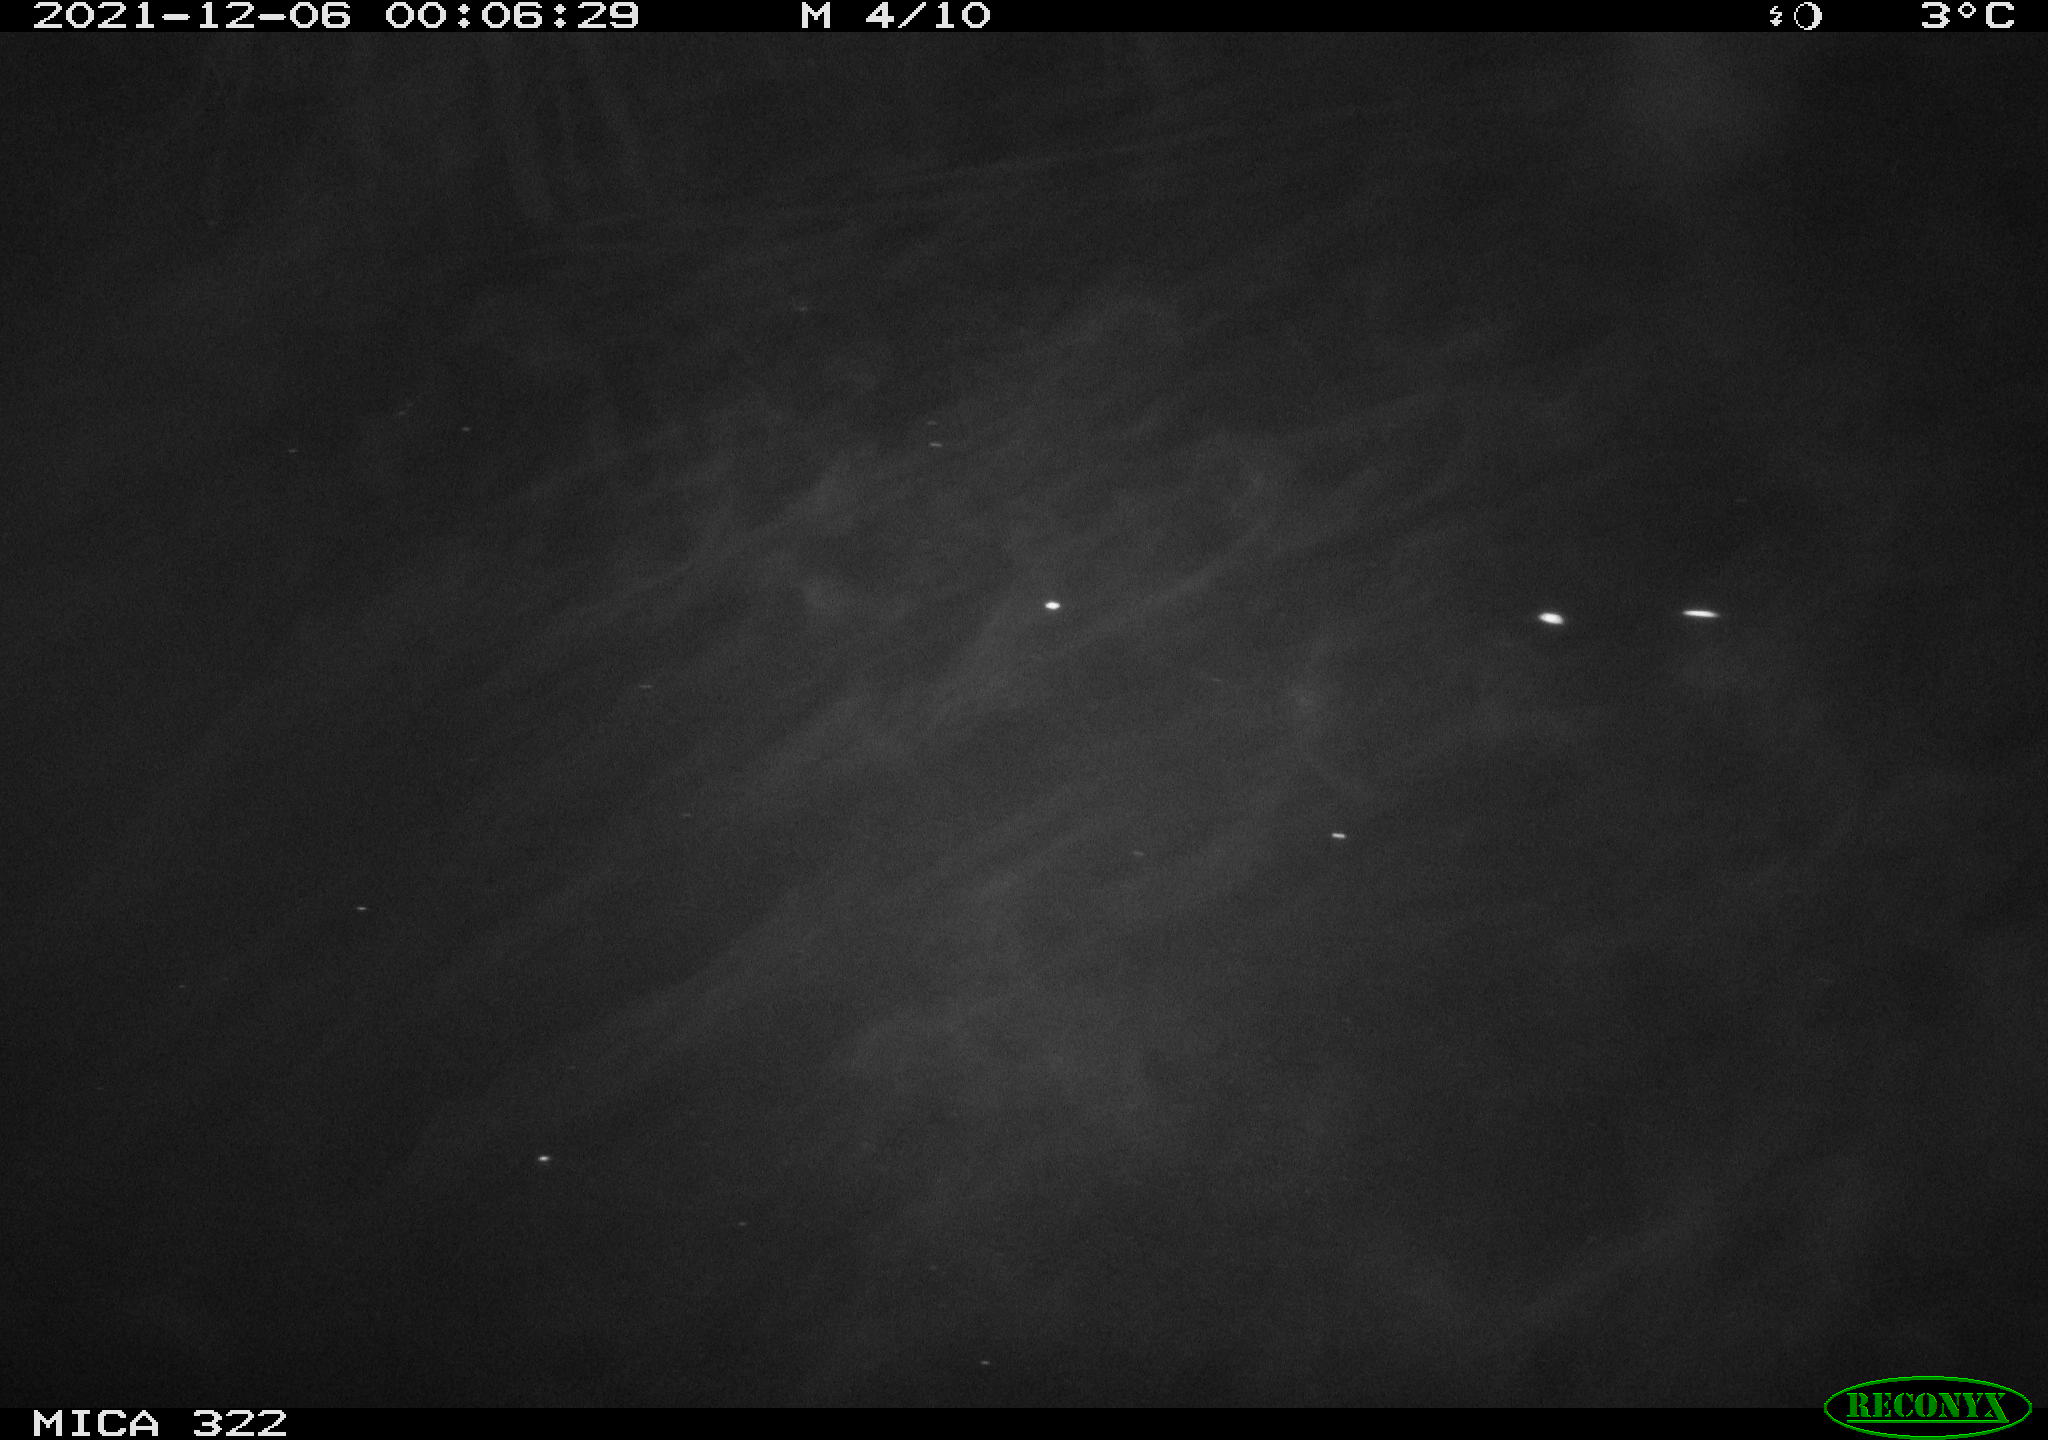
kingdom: Animalia
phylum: Chordata
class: Mammalia
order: Rodentia
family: Muridae
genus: Rattus
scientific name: Rattus norvegicus
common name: Brown rat
